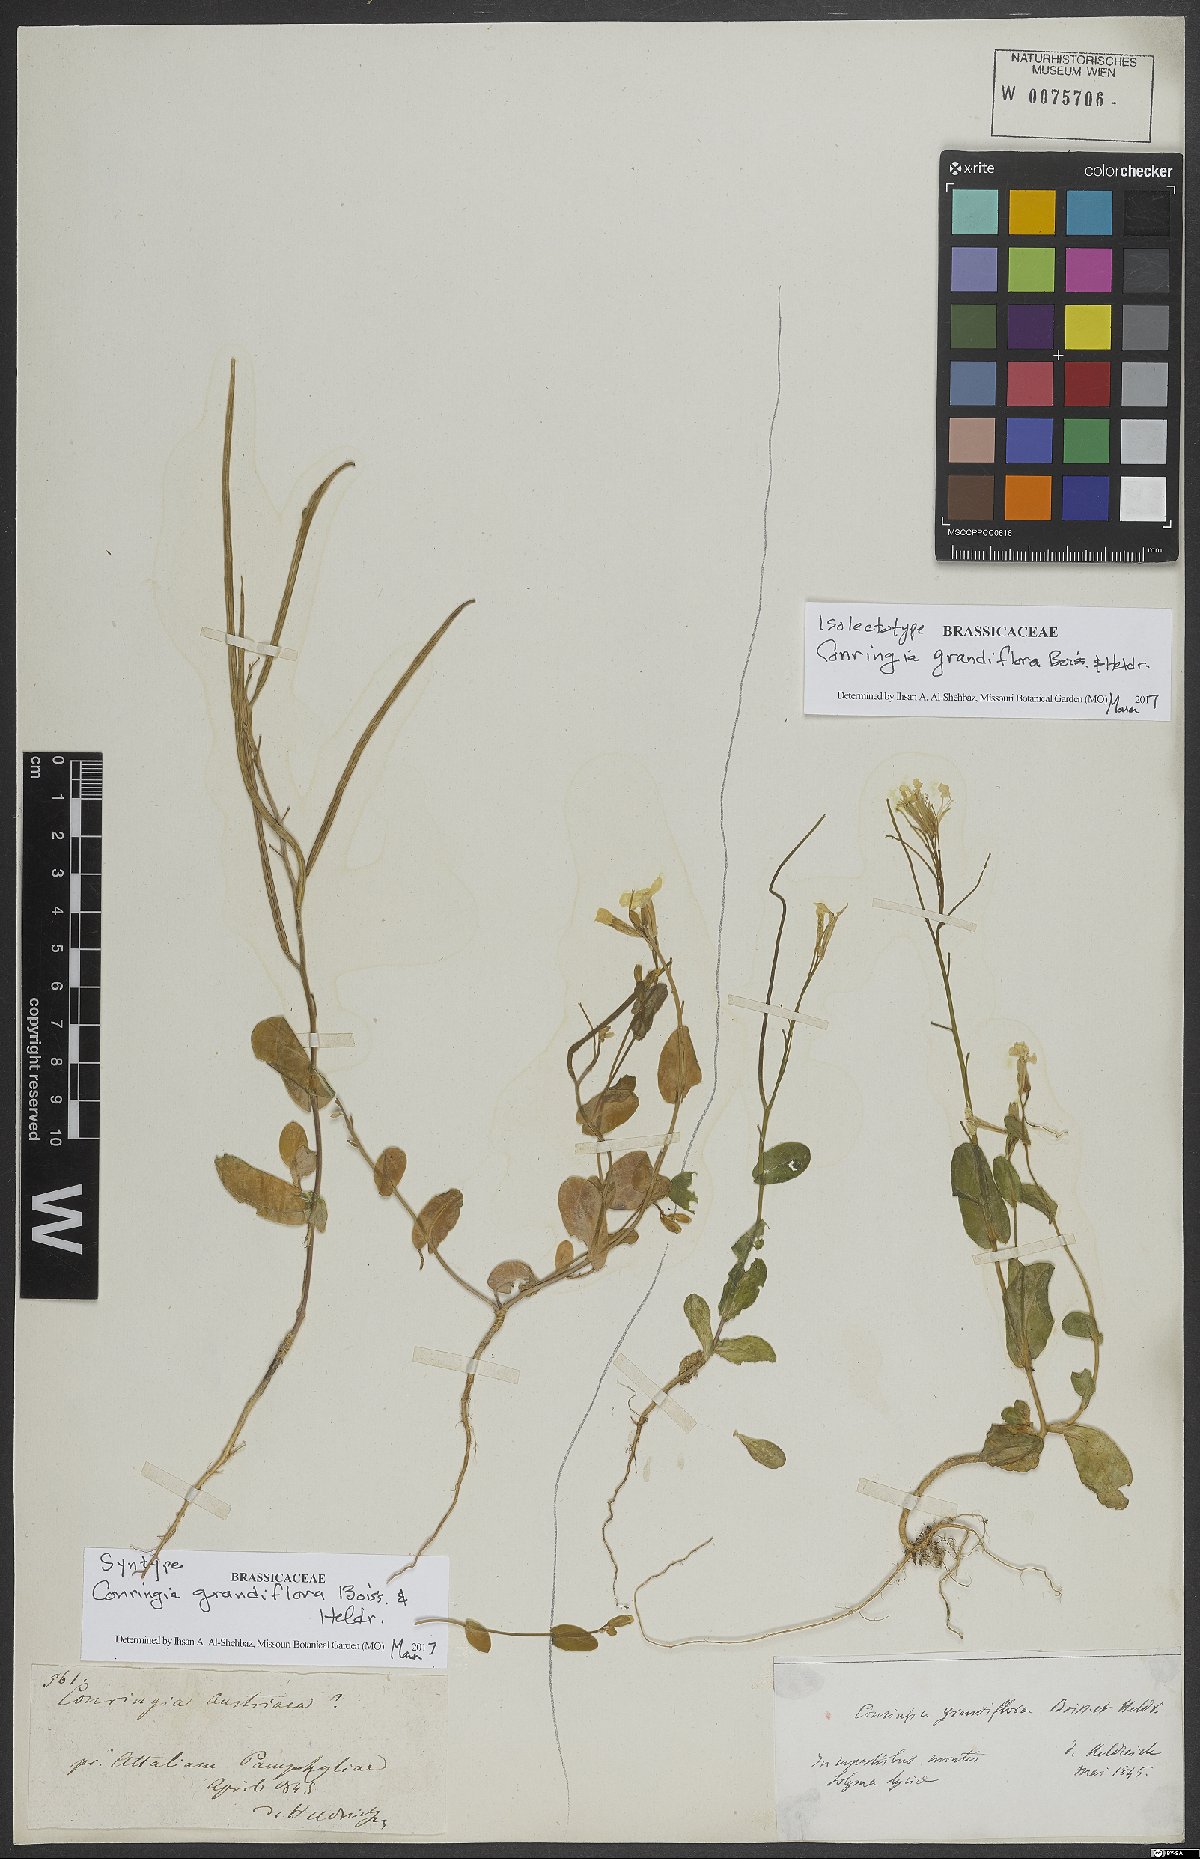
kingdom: Plantae
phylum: Tracheophyta
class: Magnoliopsida
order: Brassicales
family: Brassicaceae
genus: Conringia
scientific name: Conringia grandiflora
